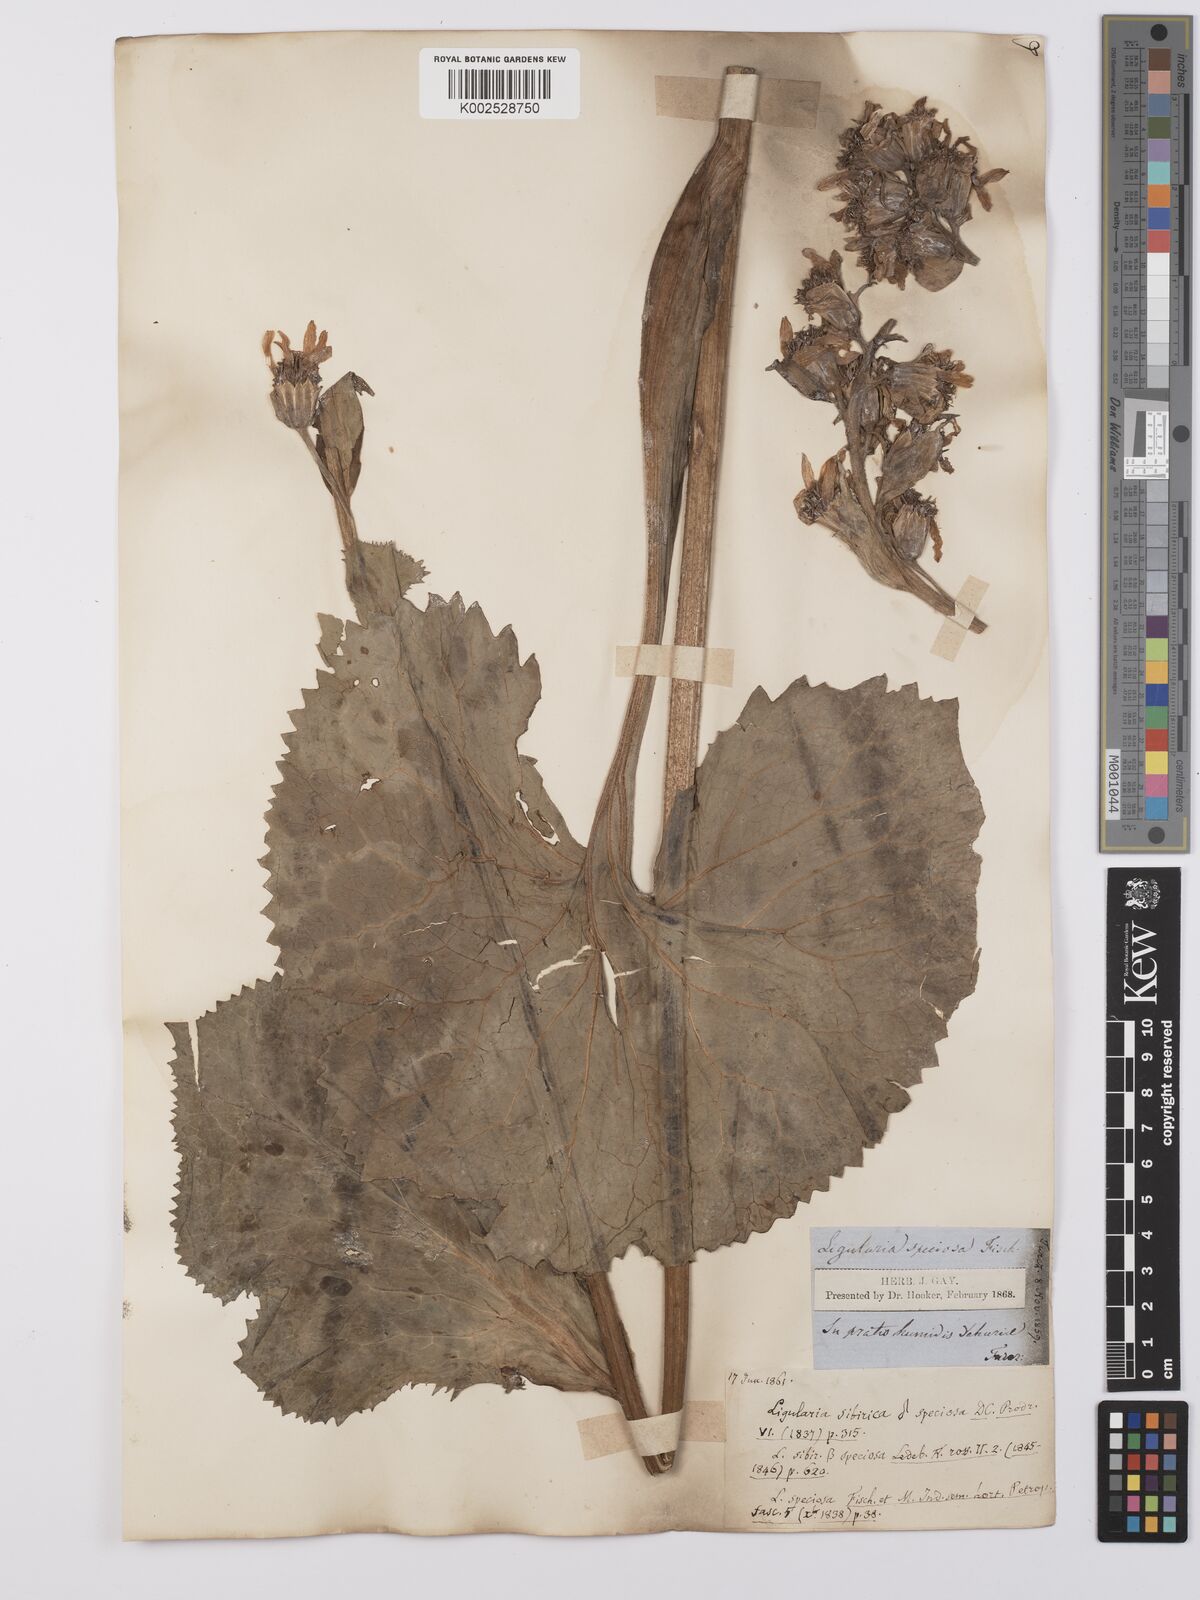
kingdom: Plantae
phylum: Tracheophyta
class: Magnoliopsida
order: Asterales
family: Asteraceae
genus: Ligularia
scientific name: Ligularia fischeri
